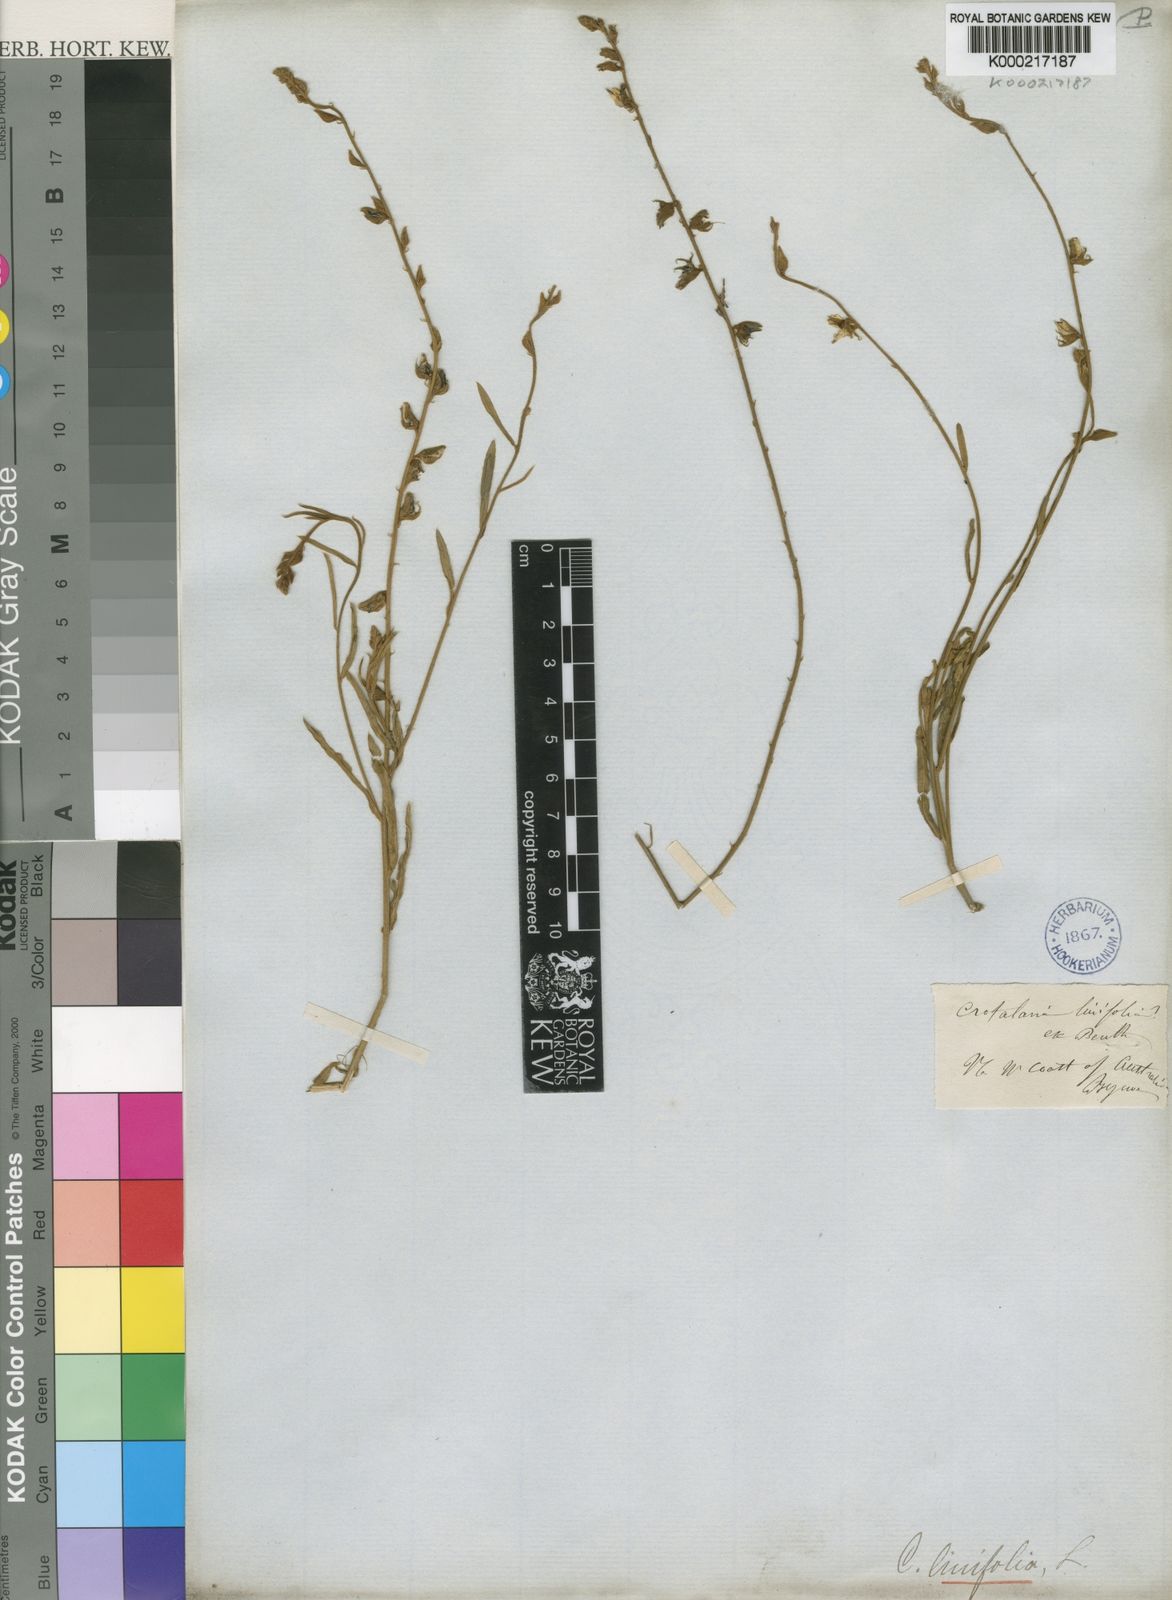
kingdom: Plantae
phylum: Tracheophyta
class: Magnoliopsida
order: Fabales
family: Fabaceae
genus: Crotalaria
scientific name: Crotalaria linifolia
